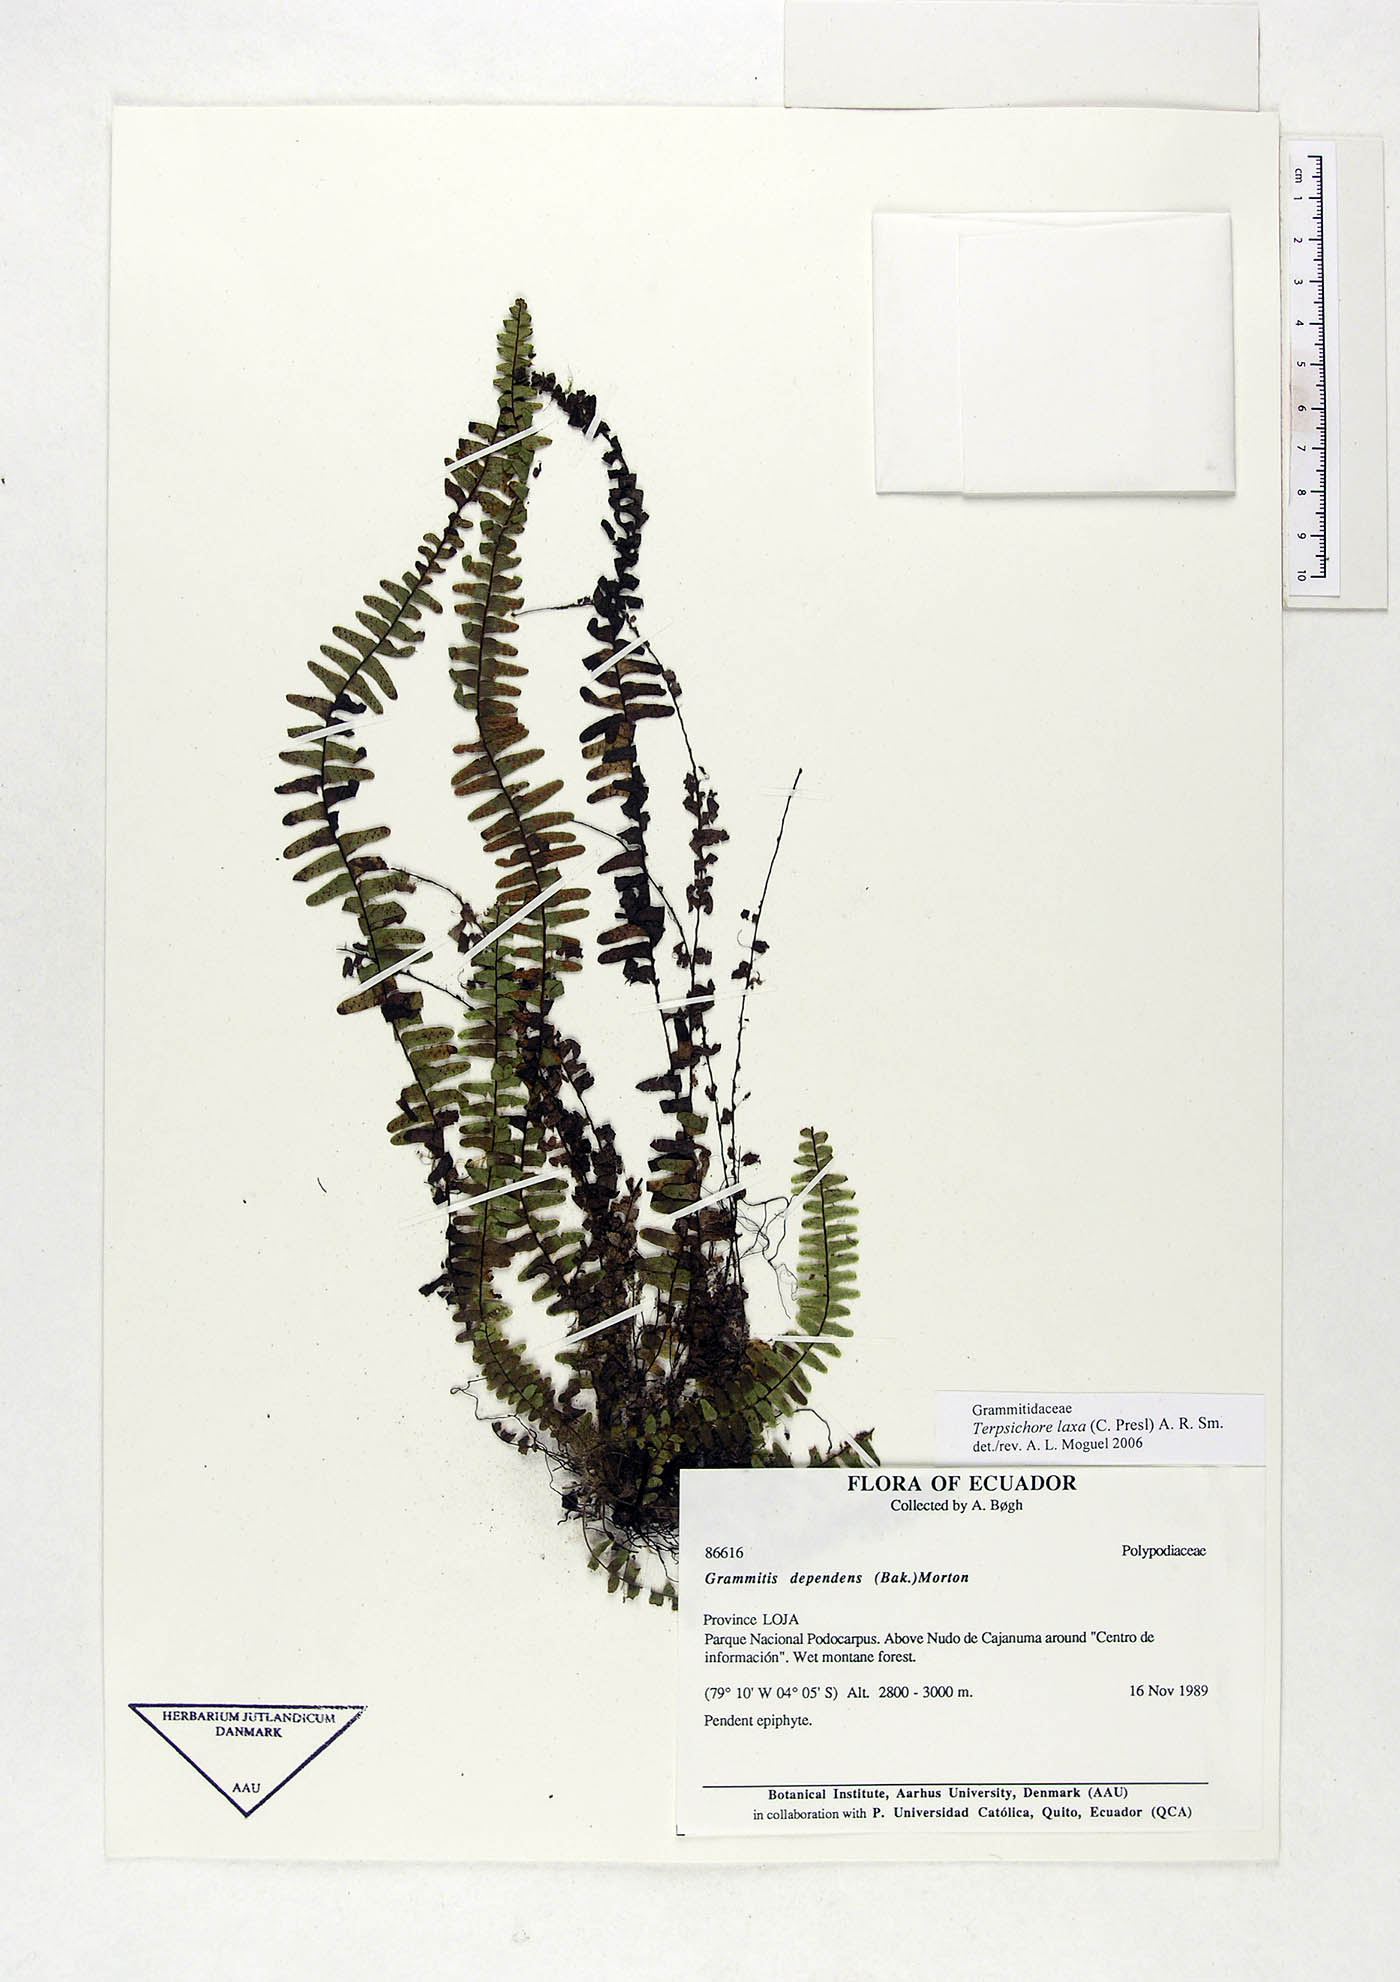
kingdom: Plantae
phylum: Tracheophyta
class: Polypodiopsida
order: Polypodiales
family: Polypodiaceae
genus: Alansmia
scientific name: Alansmia laxa
